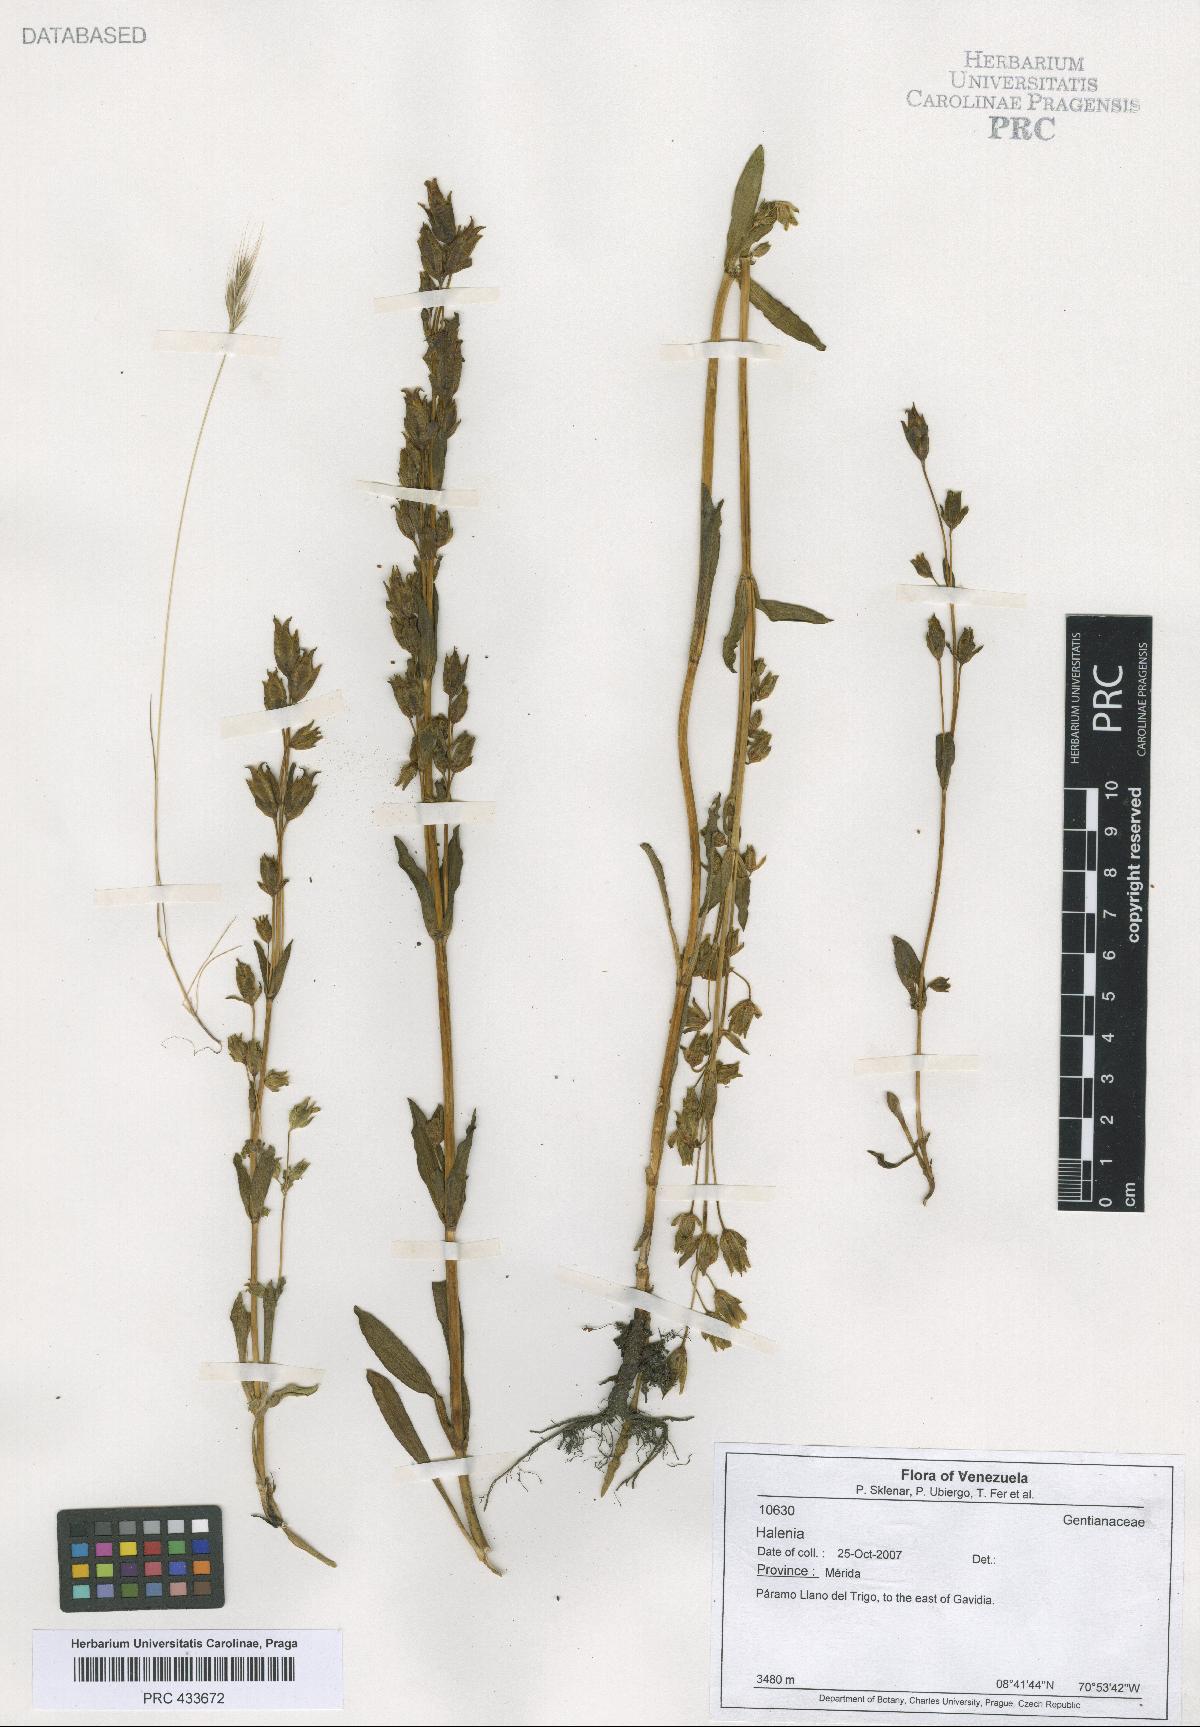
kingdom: Plantae
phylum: Tracheophyta
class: Magnoliopsida
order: Gentianales
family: Gentianaceae
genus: Halenia
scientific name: Halenia
